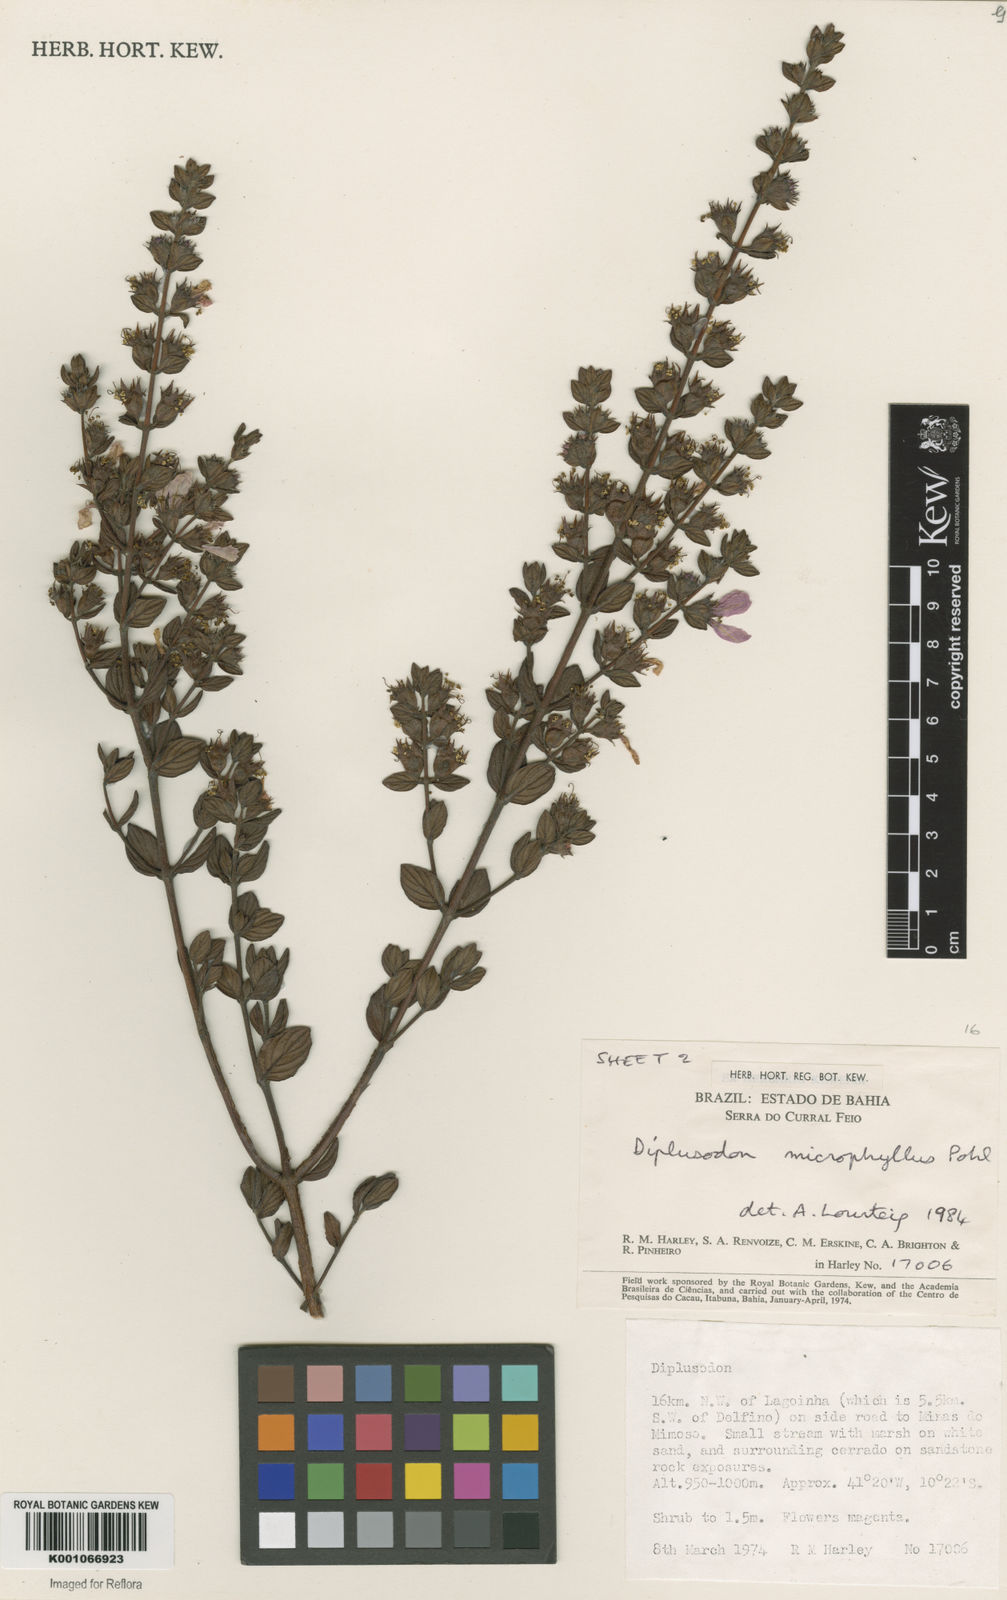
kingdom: Plantae
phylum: Tracheophyta
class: Magnoliopsida
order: Myrtales
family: Lythraceae
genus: Diplusodon
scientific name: Diplusodon microphyllus
